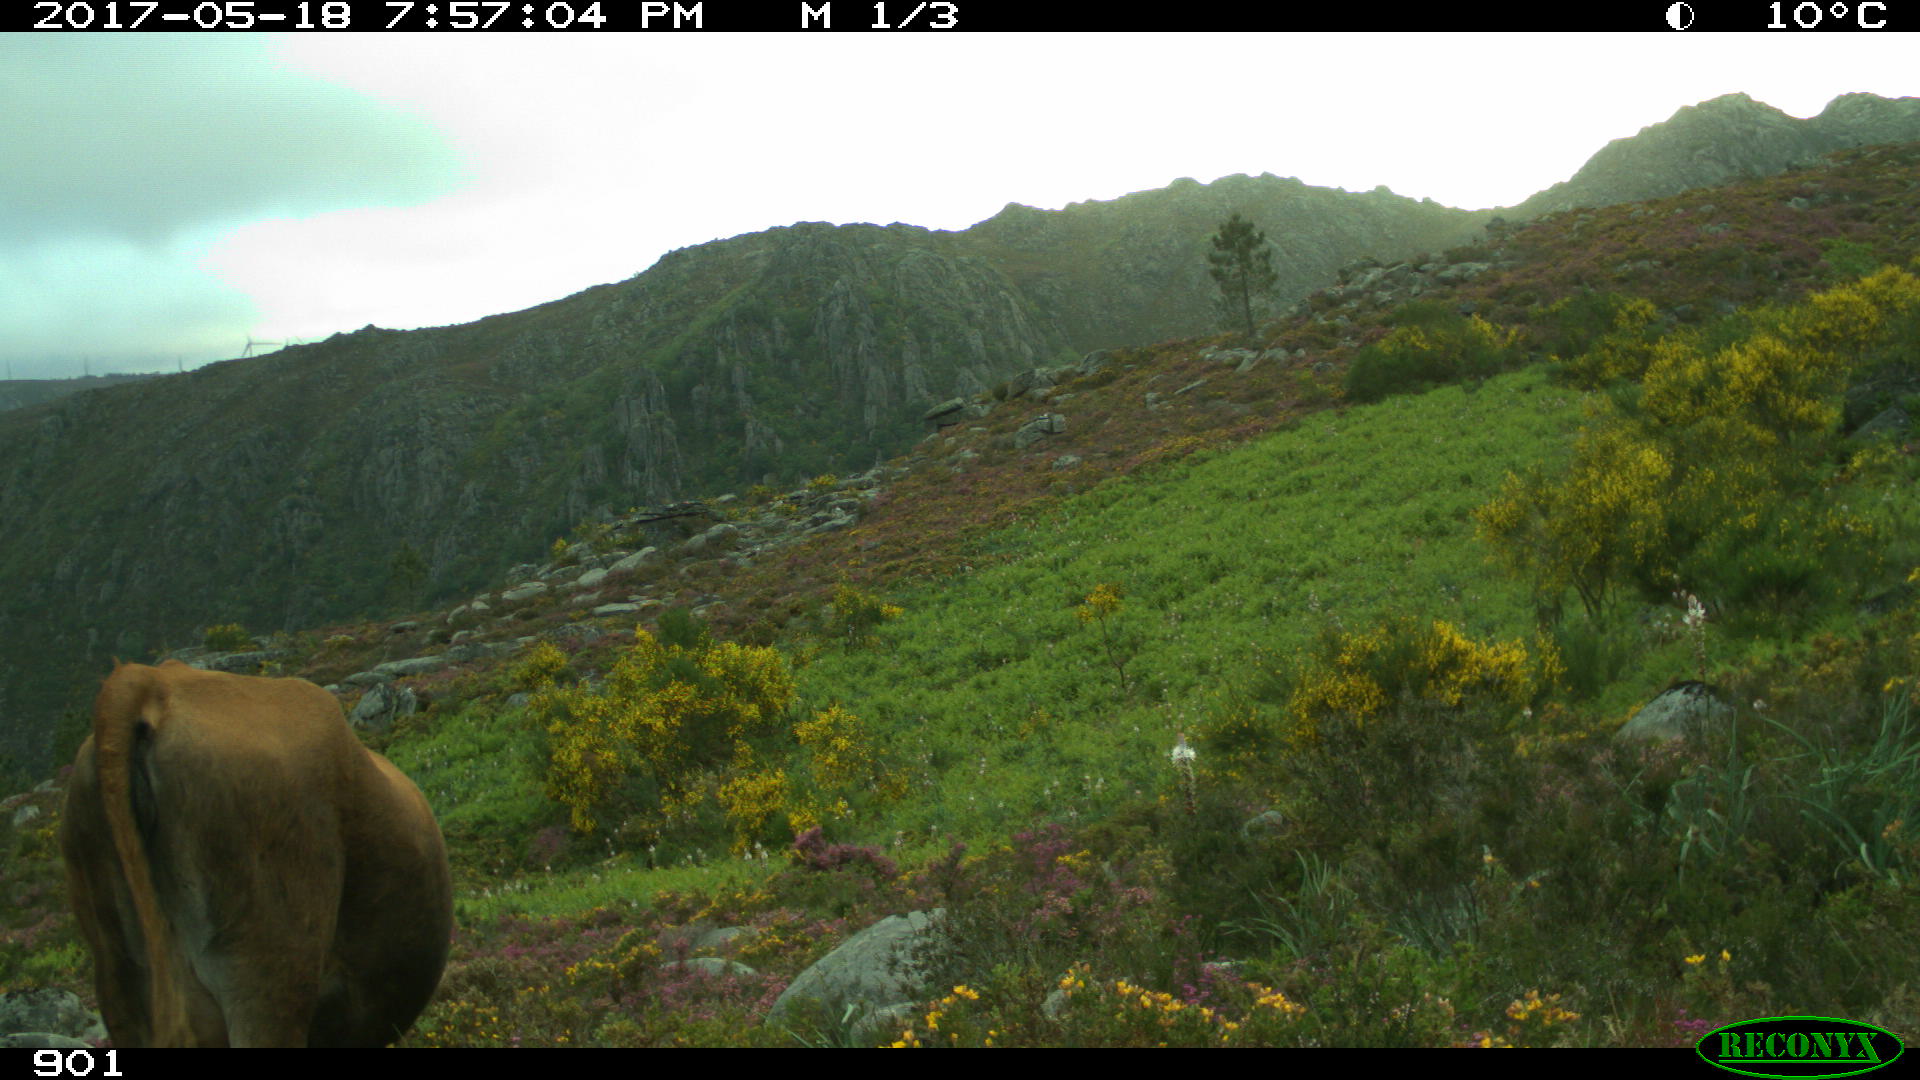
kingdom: Animalia
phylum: Chordata
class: Mammalia
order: Artiodactyla
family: Bovidae
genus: Bos
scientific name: Bos taurus
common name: Domesticated cattle
